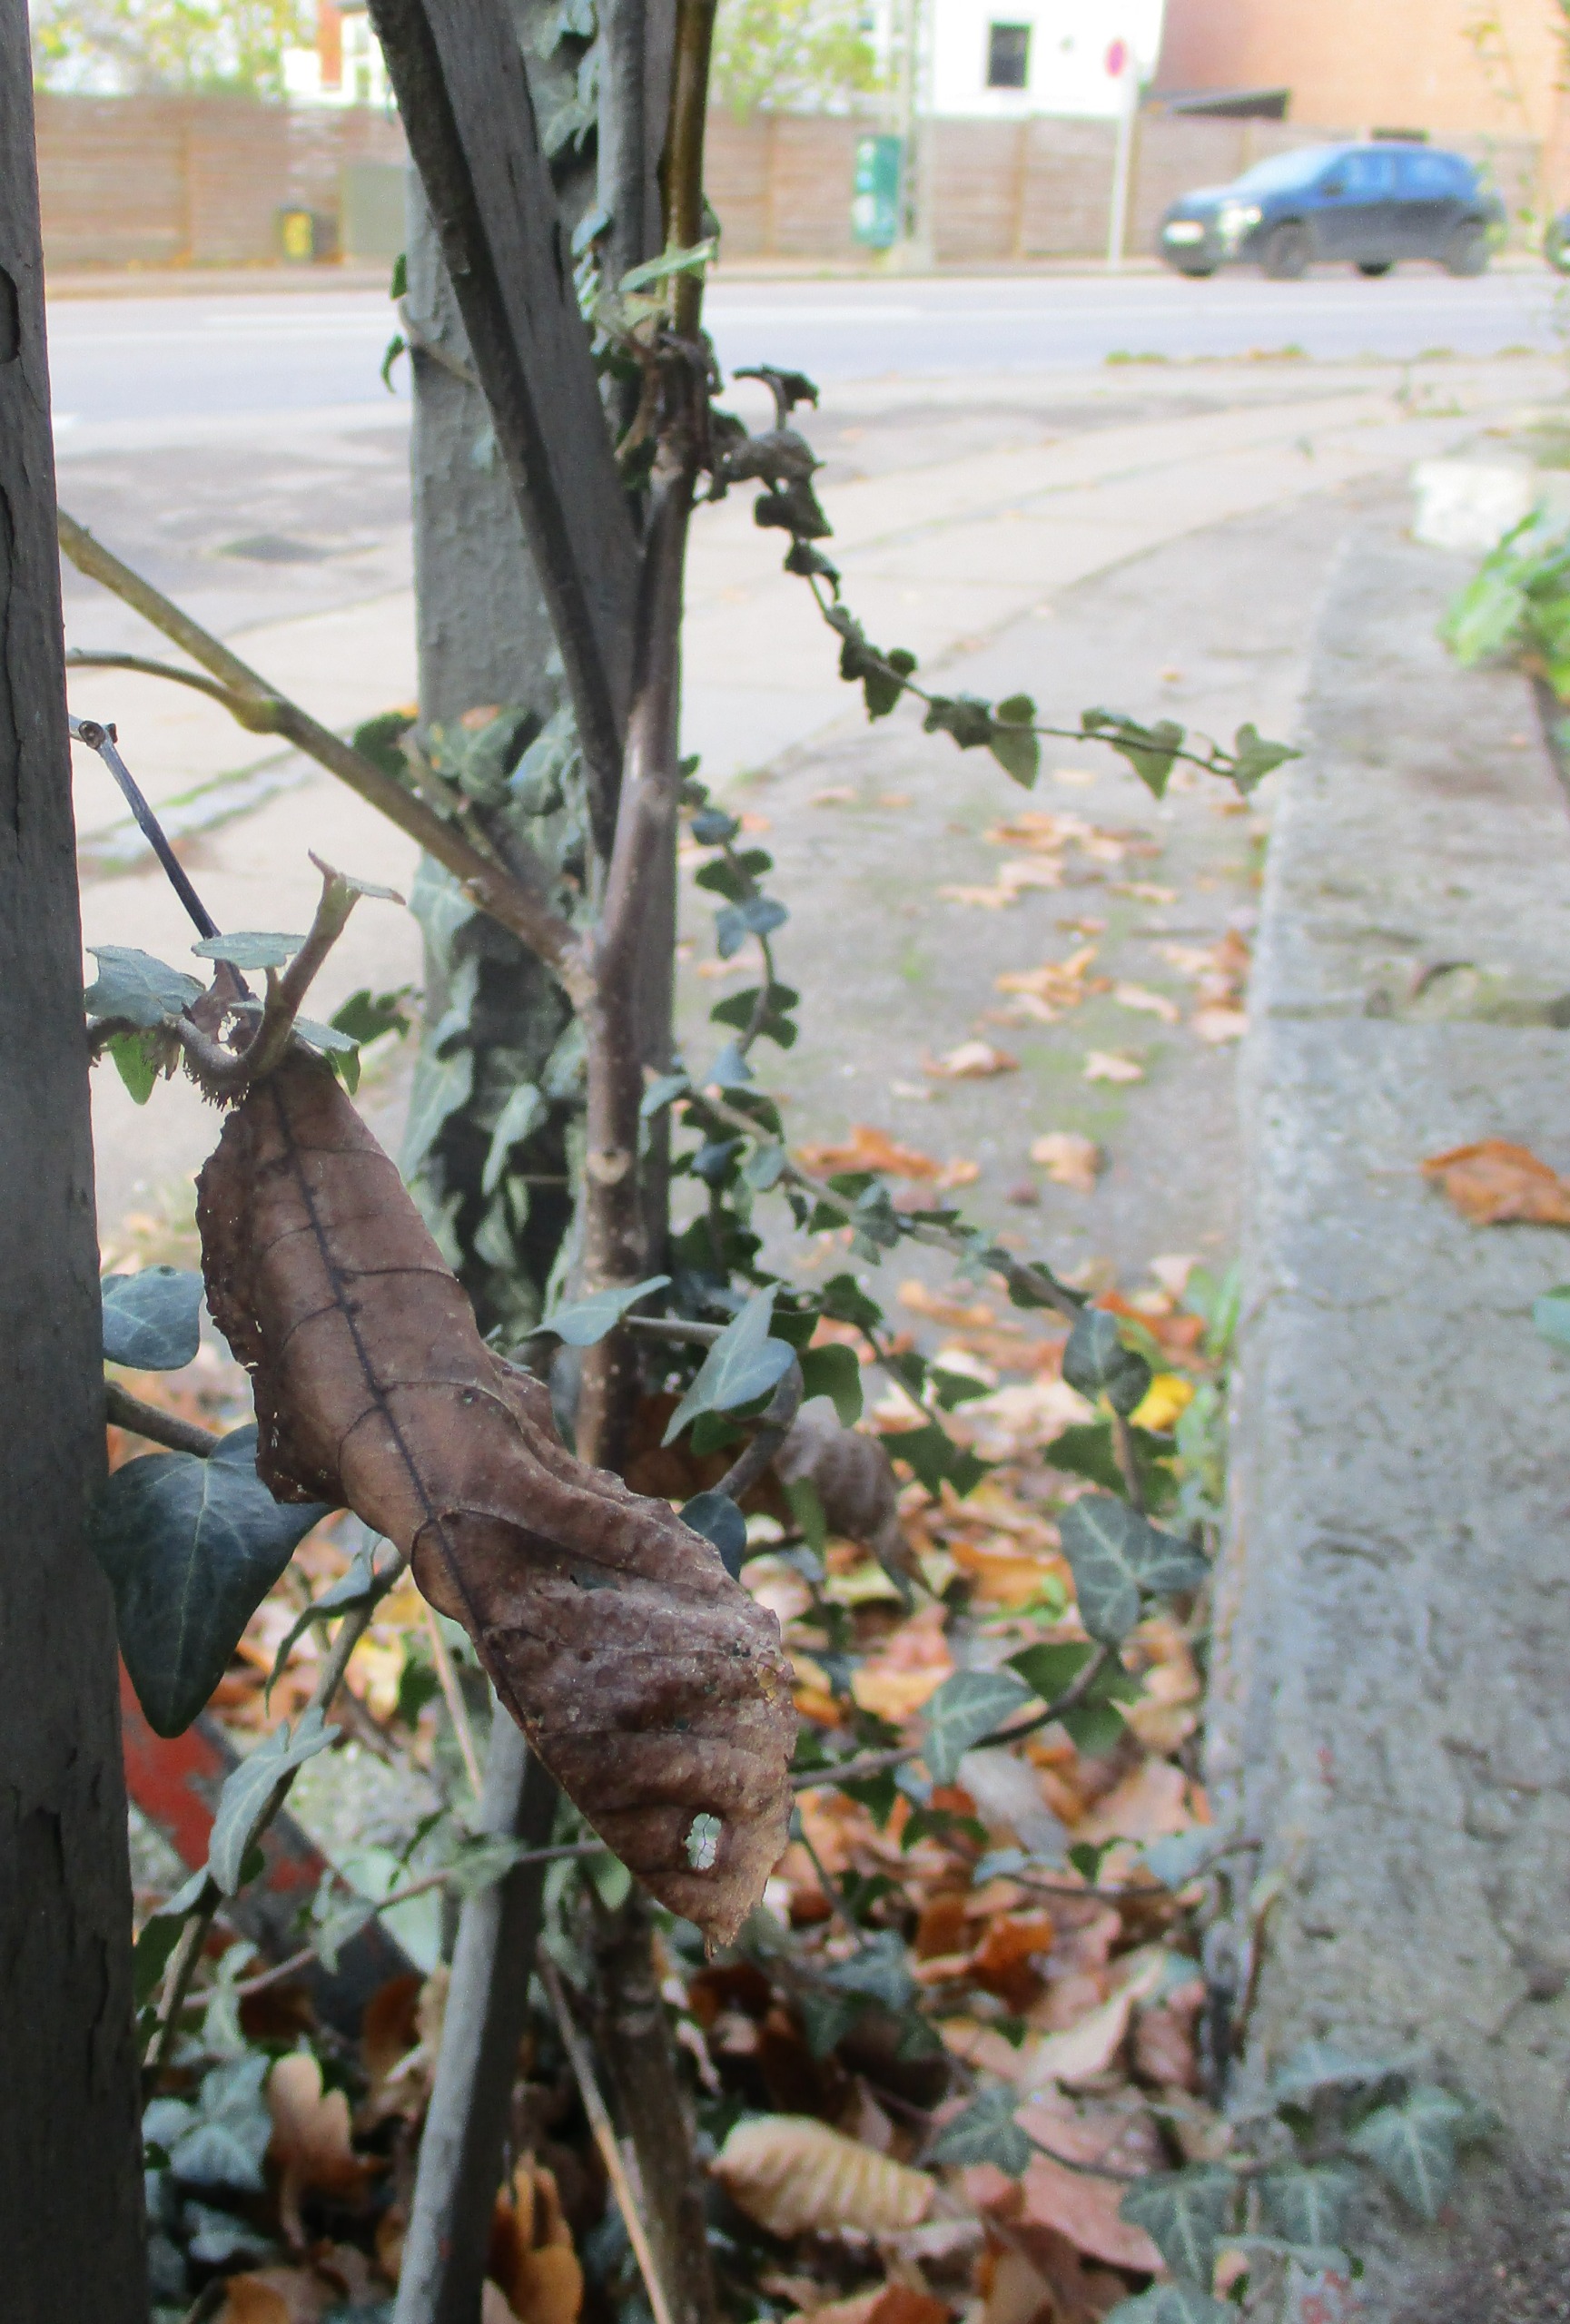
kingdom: Plantae
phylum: Tracheophyta
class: Magnoliopsida
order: Apiales
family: Araliaceae
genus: Hedera
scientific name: Hedera helix
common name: Vedbend
